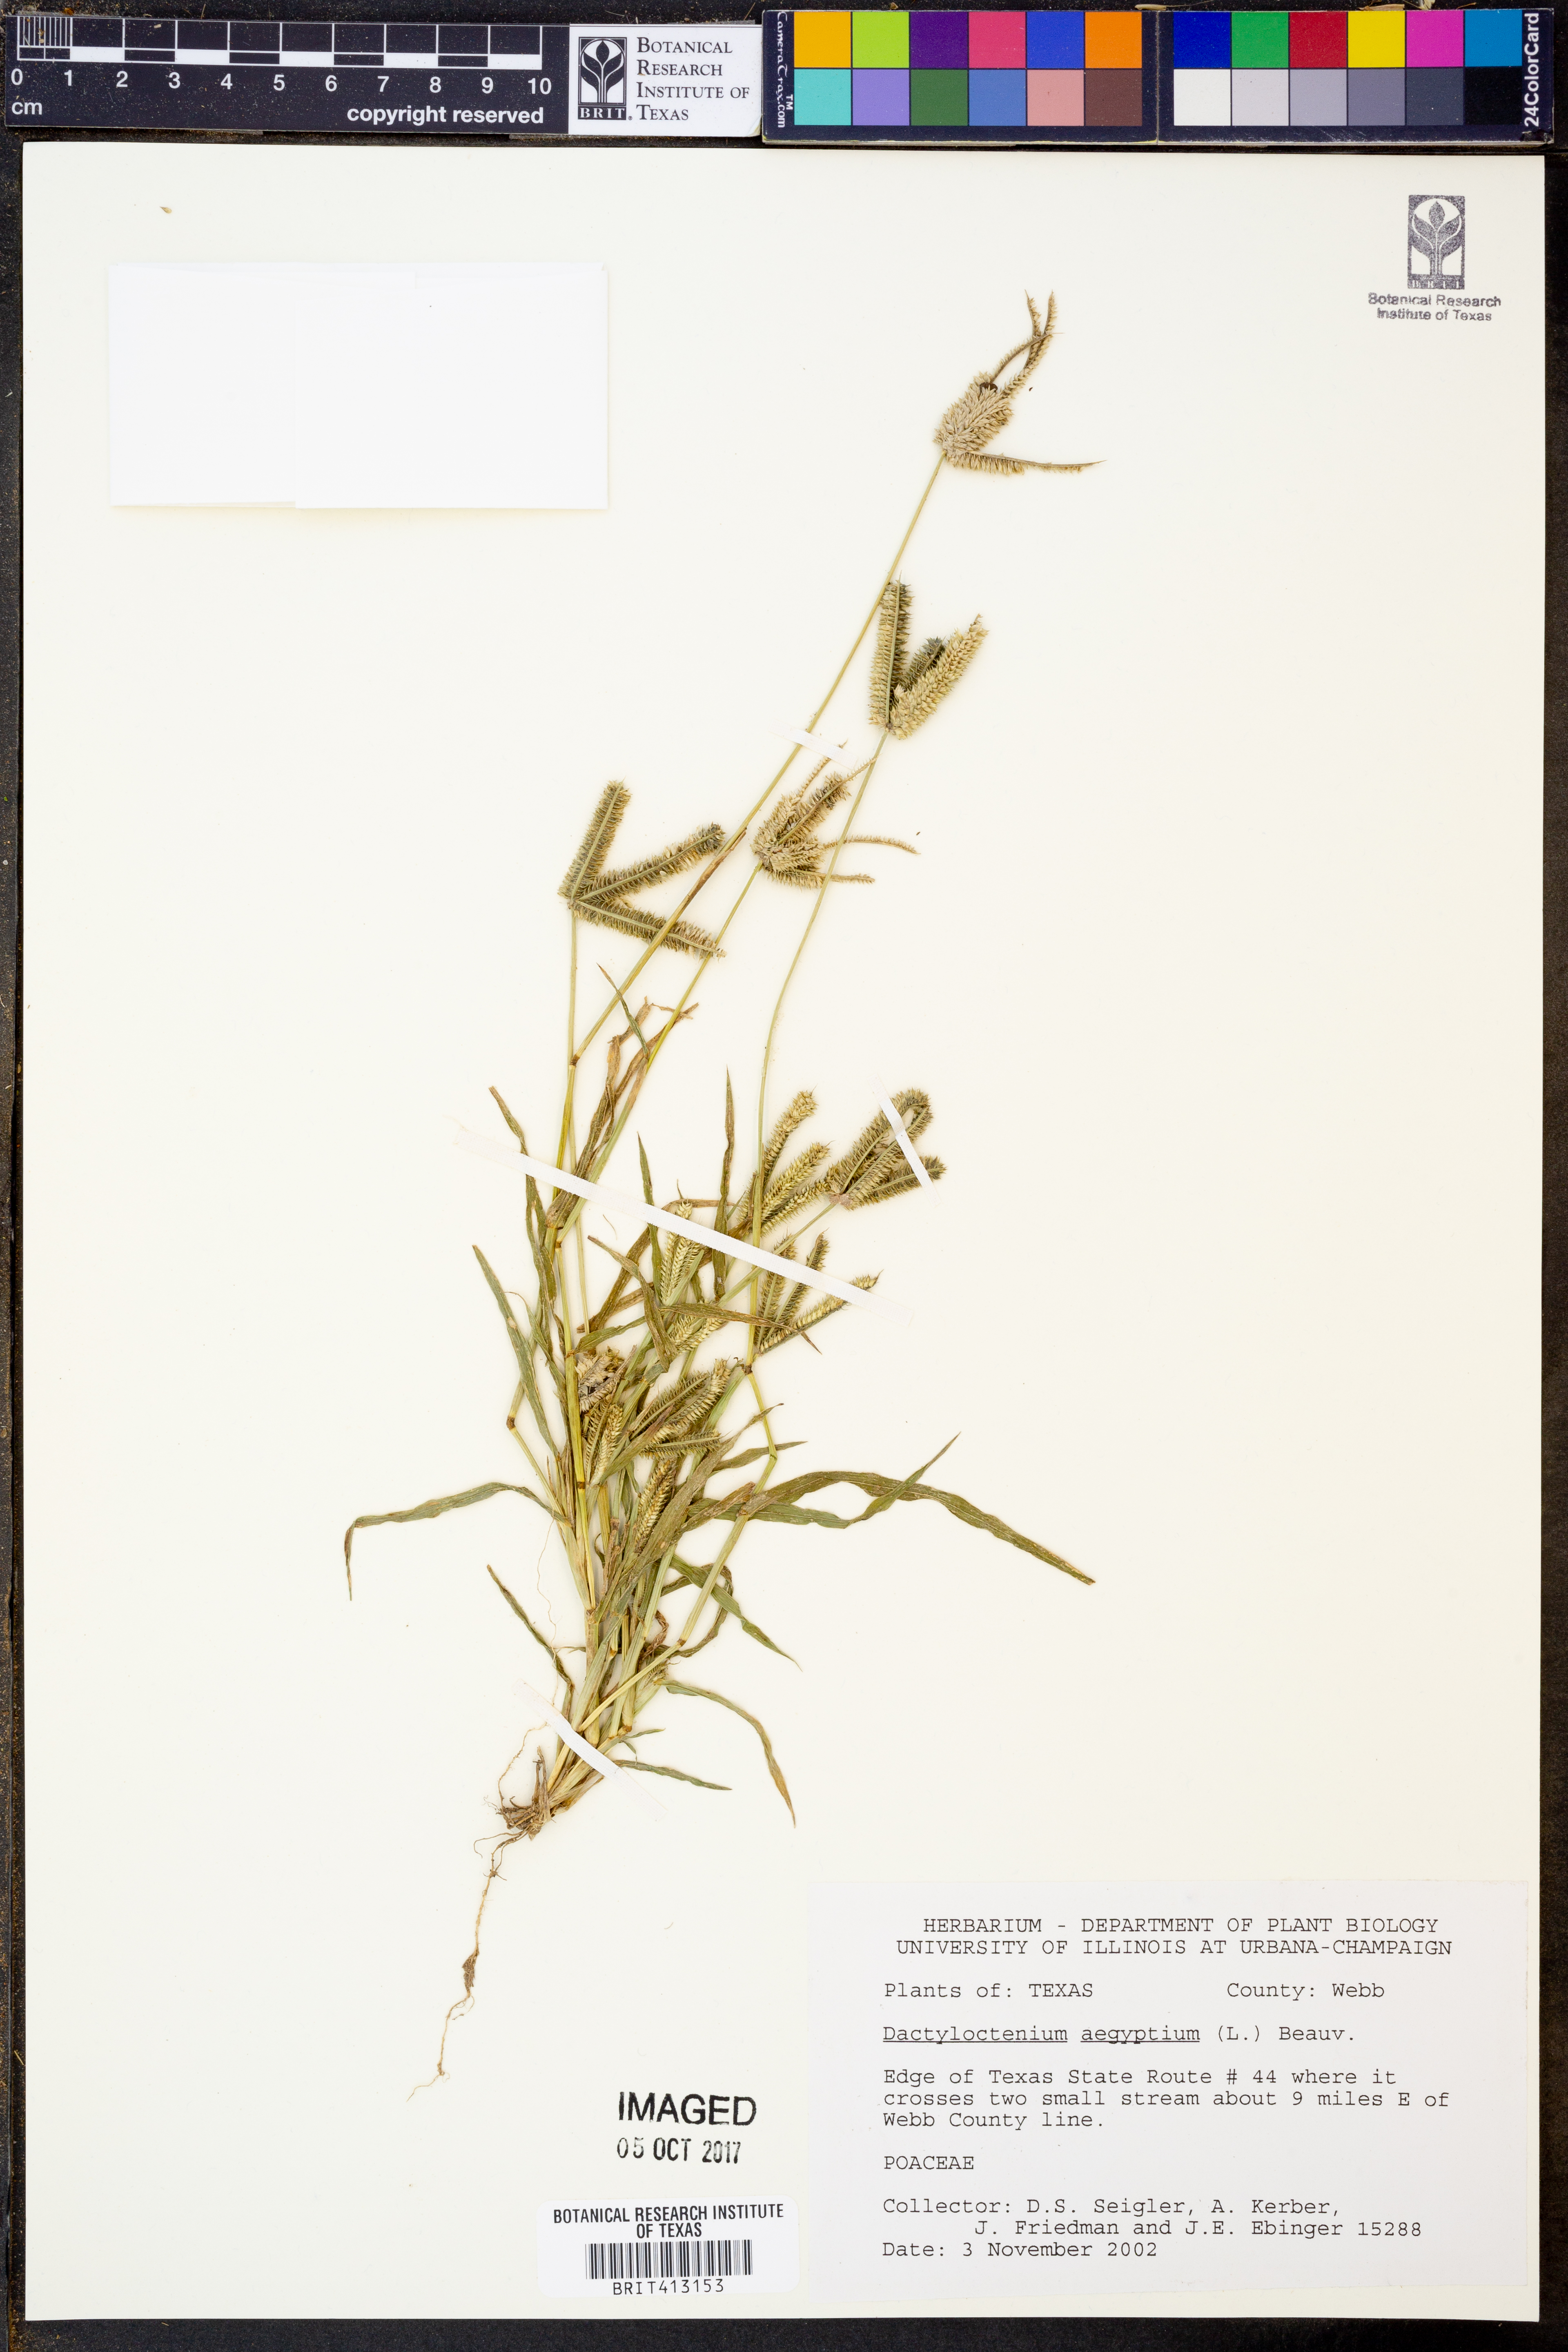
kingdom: Plantae
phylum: Tracheophyta
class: Liliopsida
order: Poales
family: Poaceae
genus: Dactyloctenium
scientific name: Dactyloctenium aegyptium
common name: Egyptian grass
